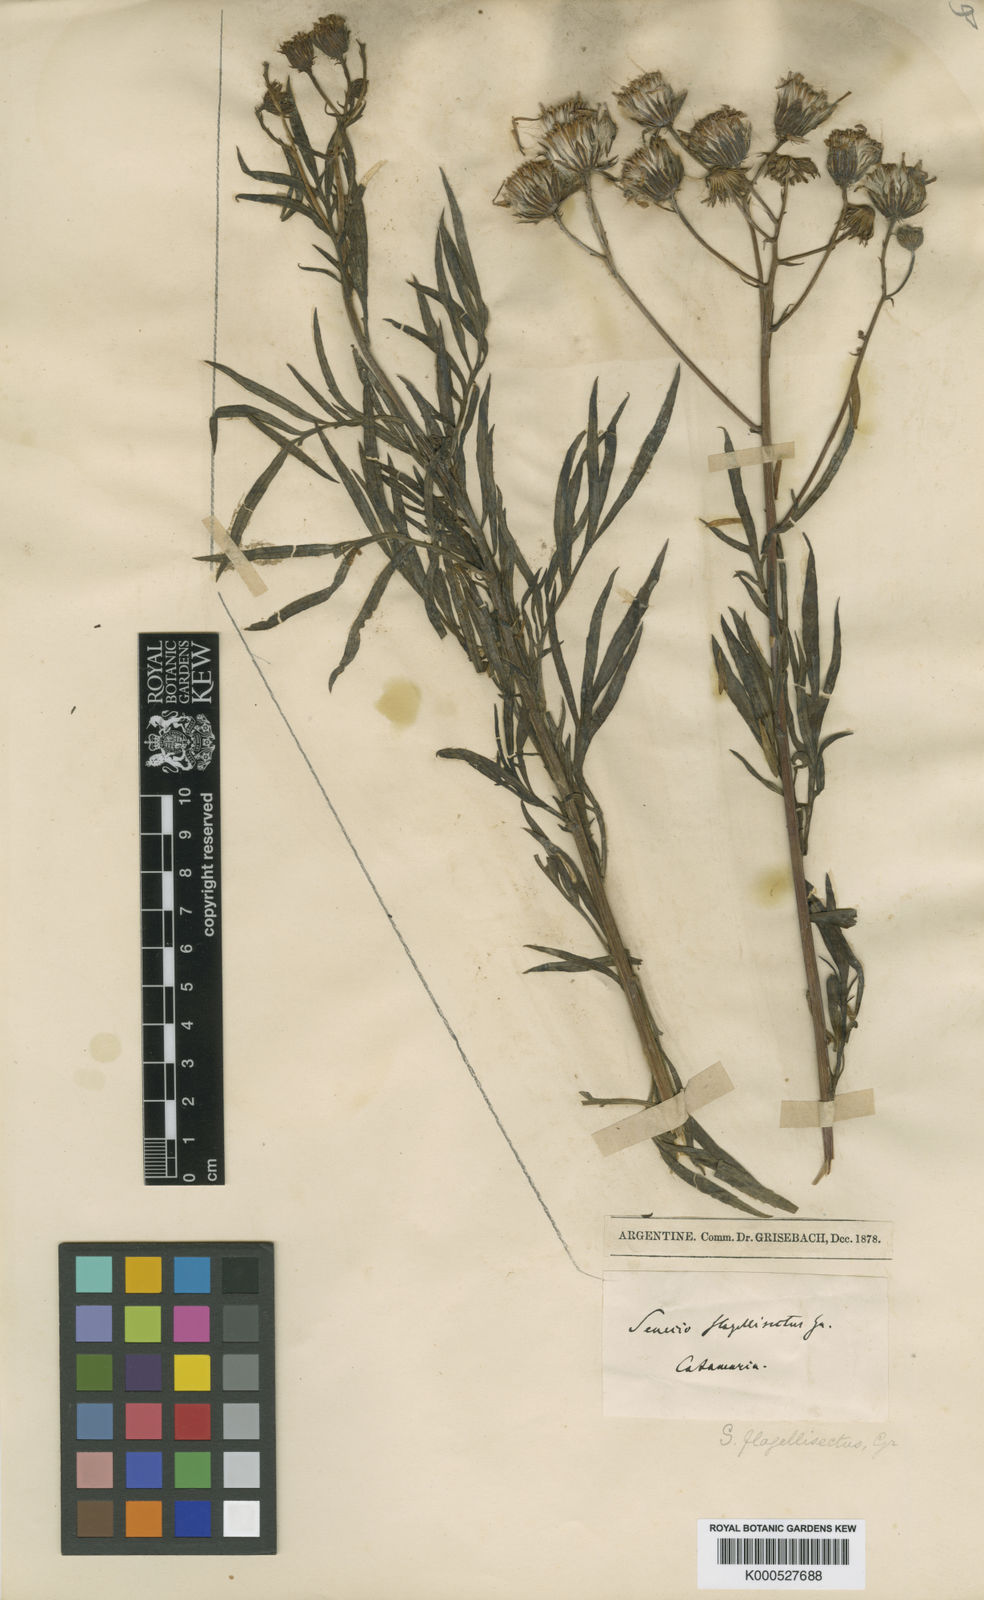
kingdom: Plantae
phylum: Tracheophyta
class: Magnoliopsida
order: Asterales
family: Asteraceae
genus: Senecio
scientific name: Senecio rudbeckiifolius
